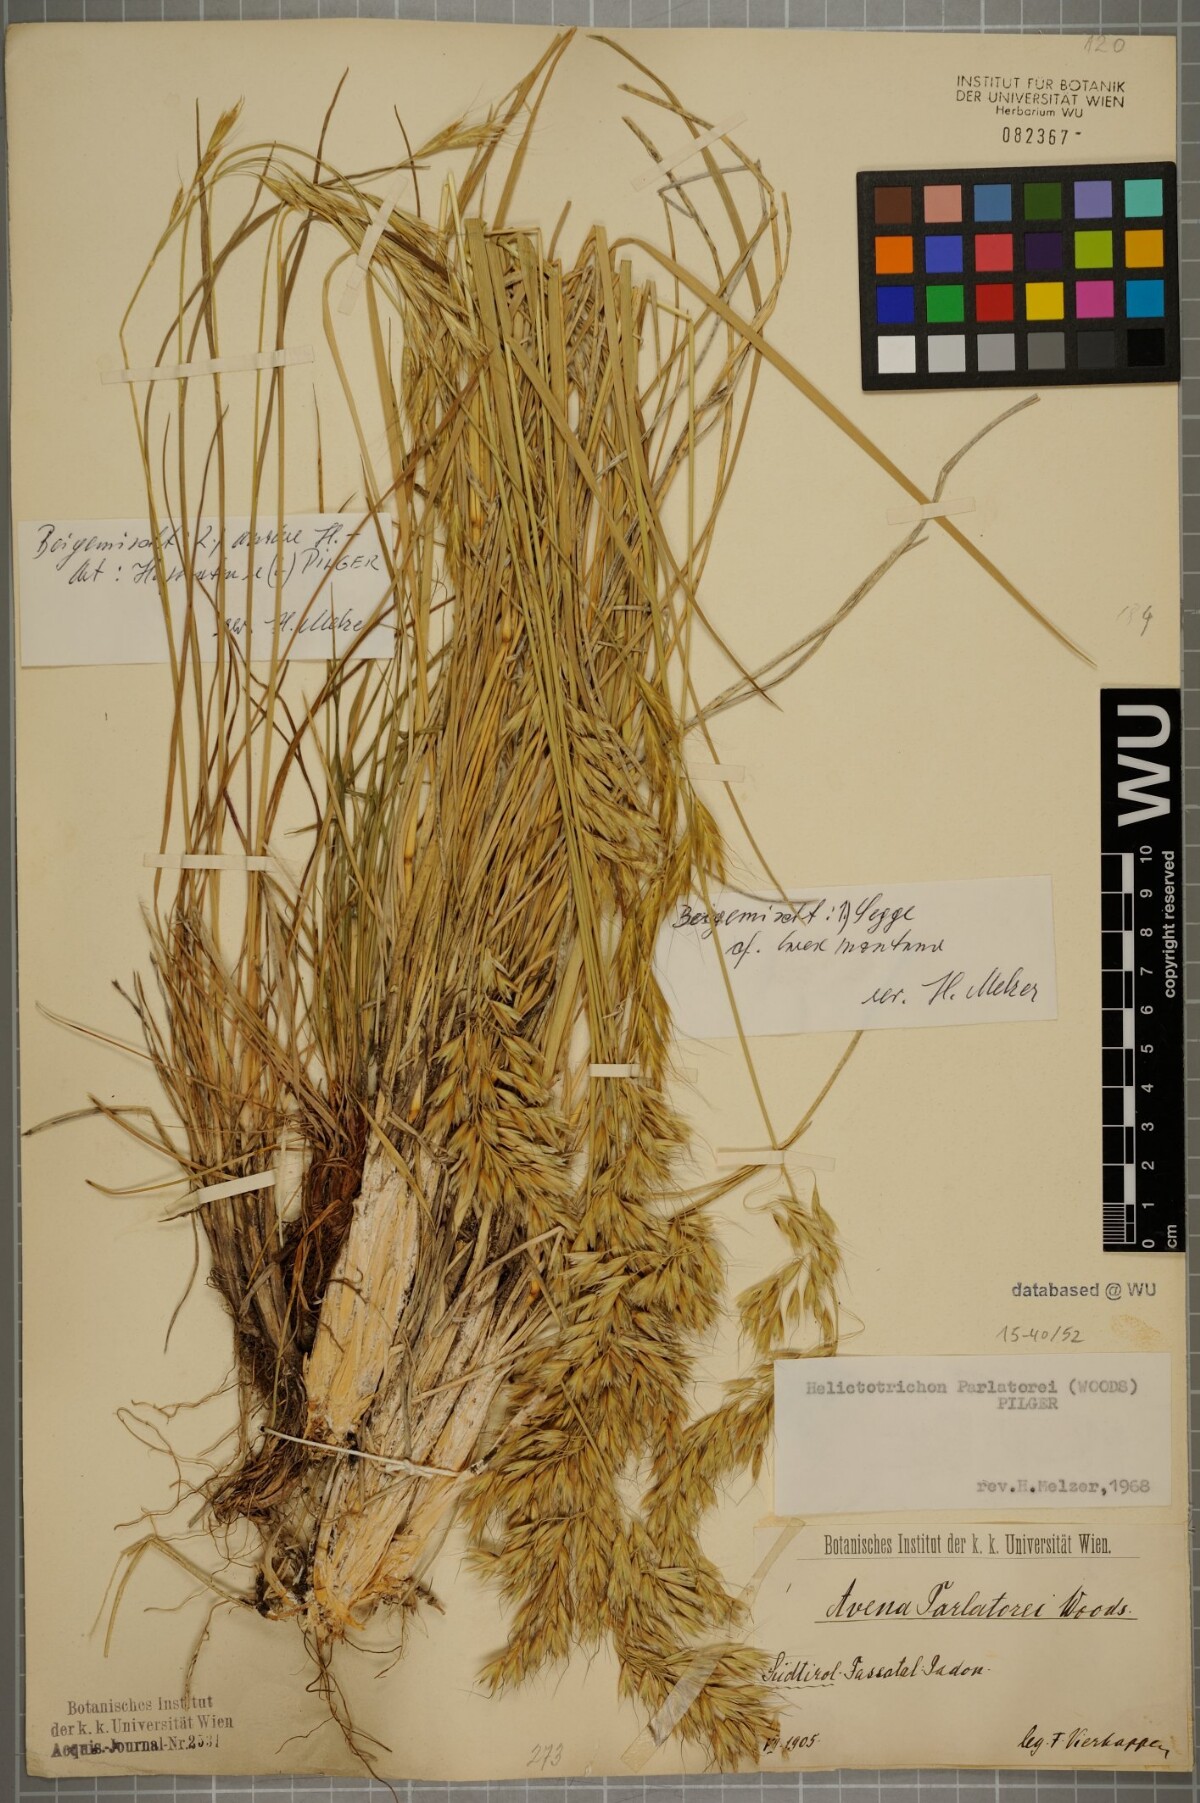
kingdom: Plantae
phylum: Tracheophyta
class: Liliopsida
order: Poales
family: Poaceae
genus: Helictotrichon
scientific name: Helictotrichon parlatorei
